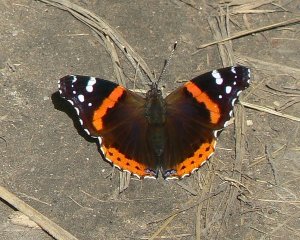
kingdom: Animalia
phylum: Arthropoda
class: Insecta
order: Lepidoptera
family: Nymphalidae
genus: Vanessa
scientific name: Vanessa atalanta
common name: Red Admiral
